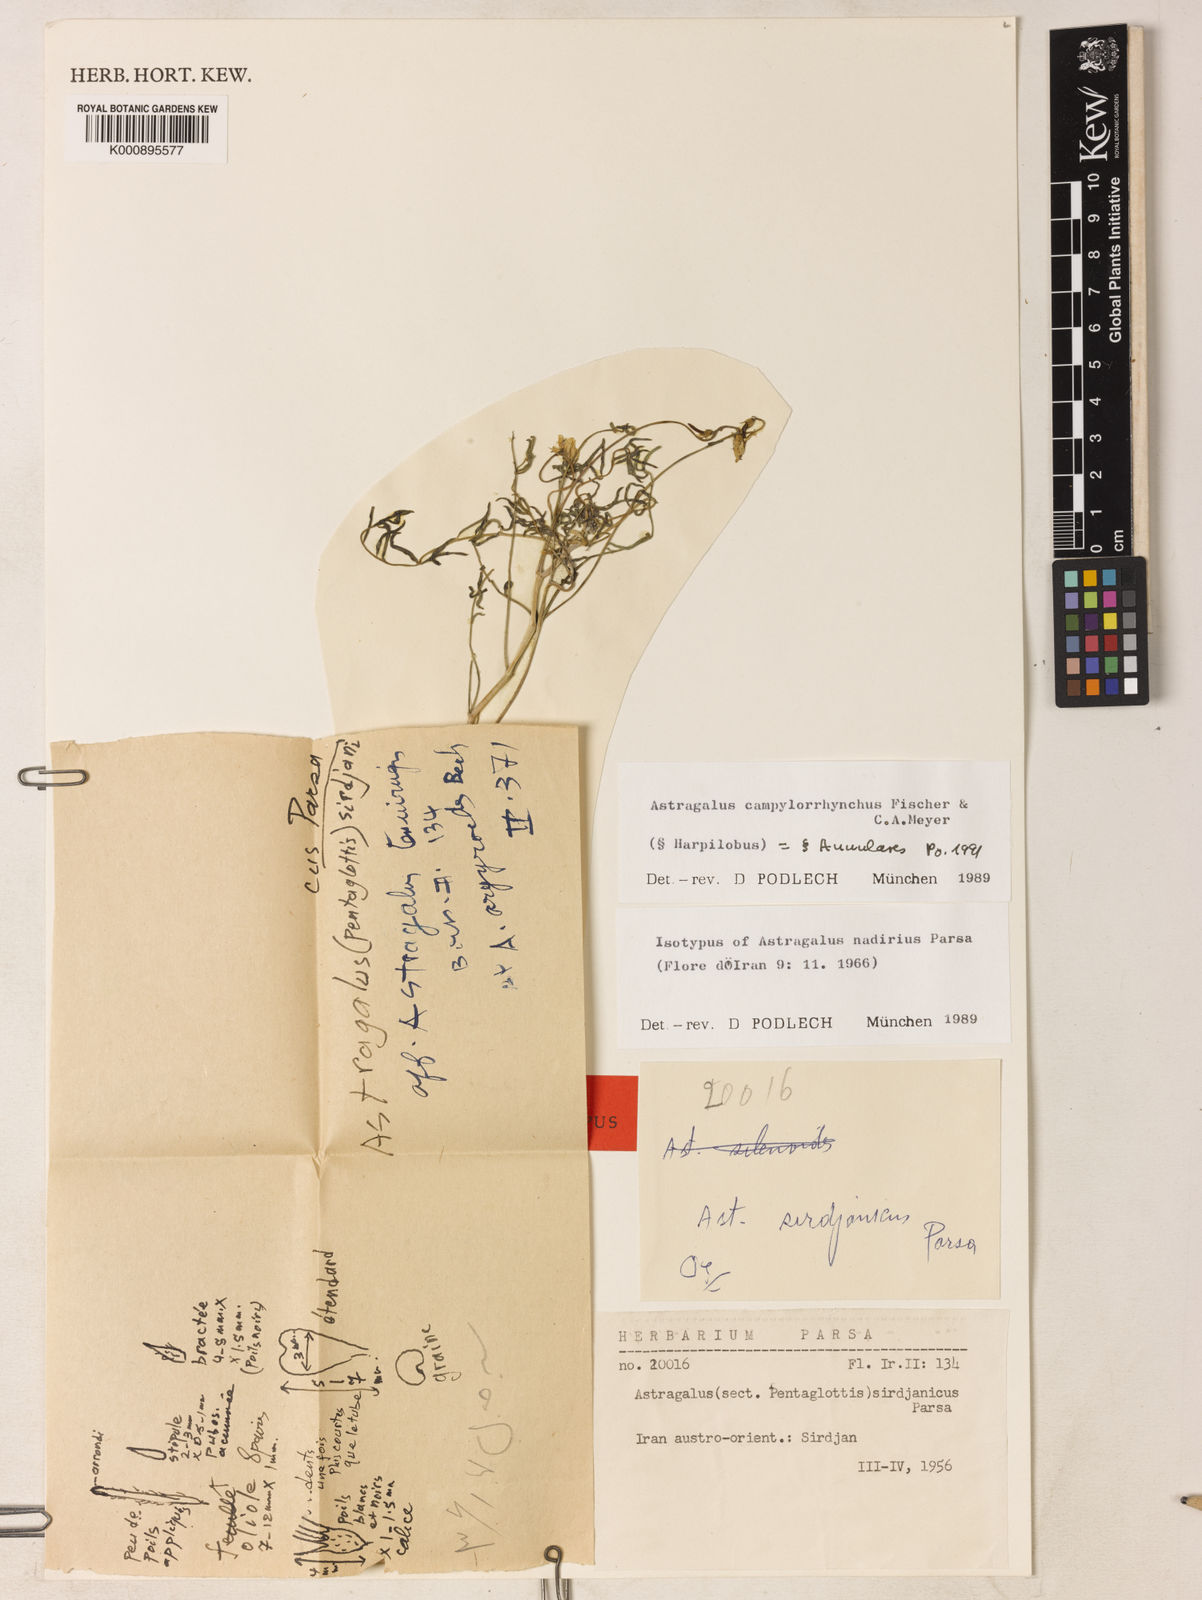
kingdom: Plantae
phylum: Tracheophyta
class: Magnoliopsida
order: Fabales
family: Fabaceae
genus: Astragalus
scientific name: Astragalus
